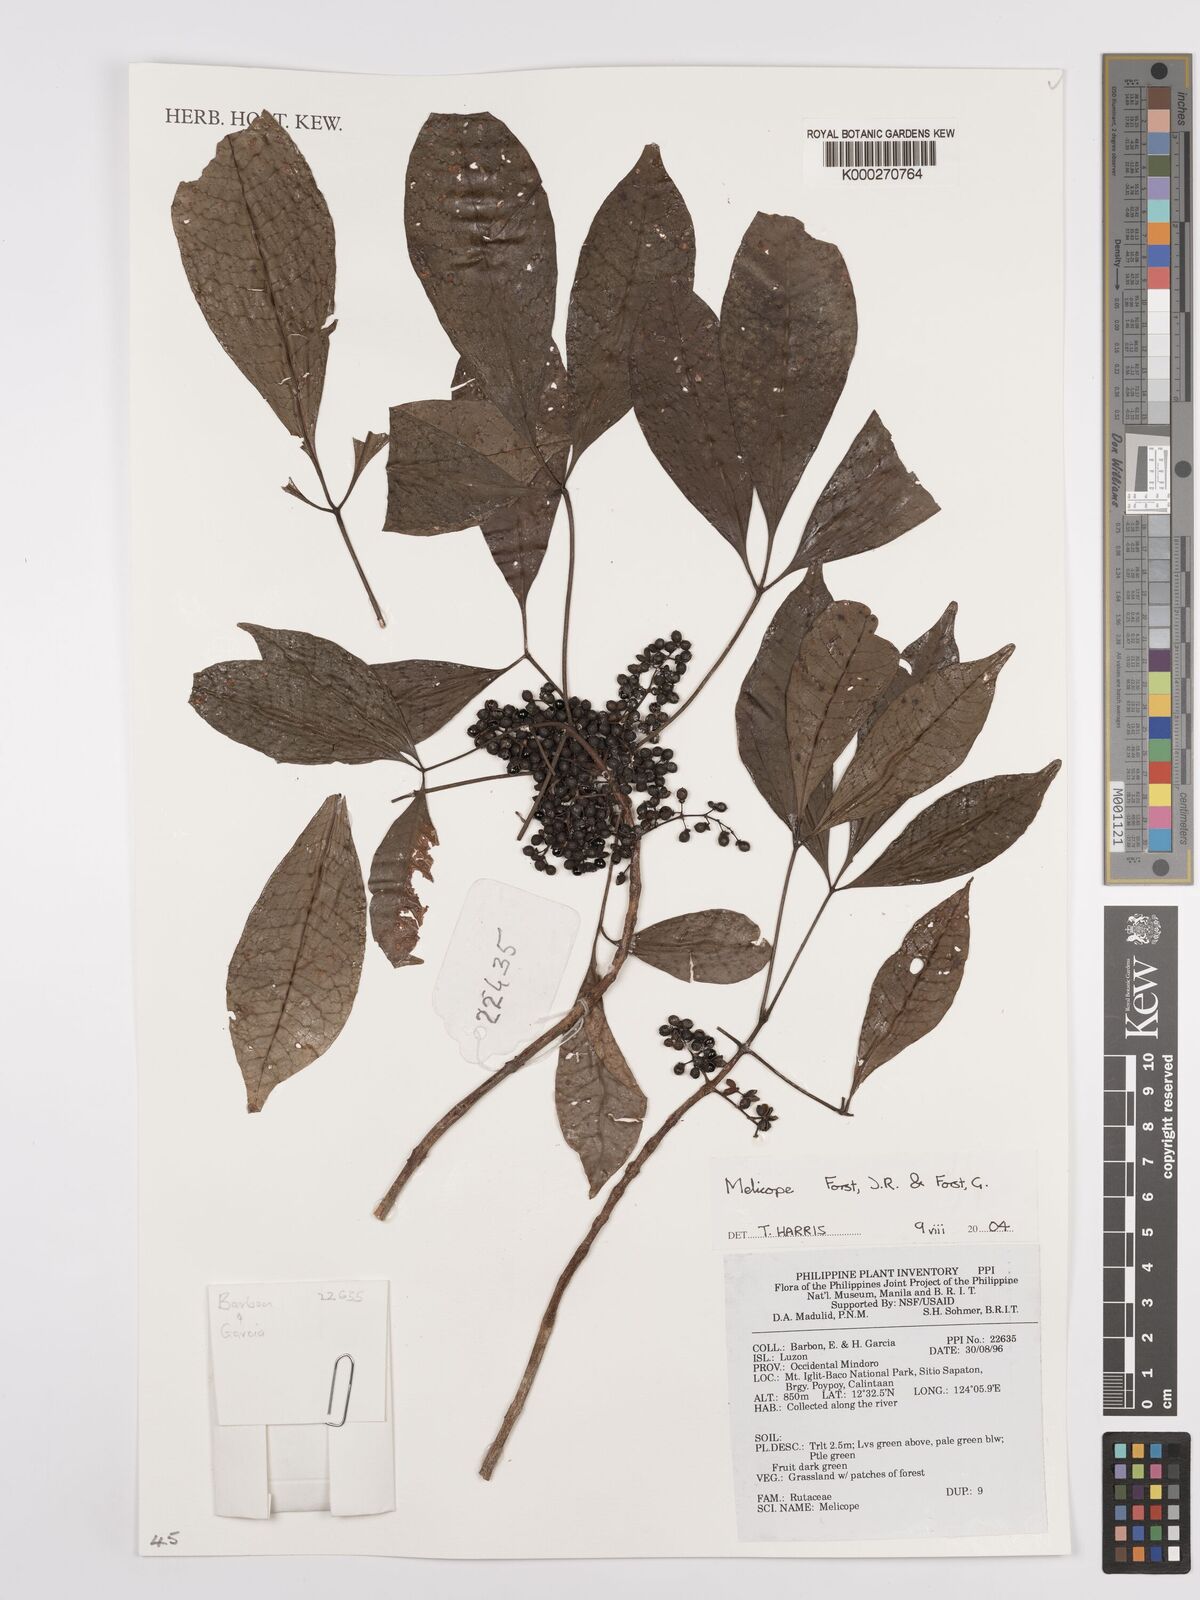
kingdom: Plantae
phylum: Tracheophyta
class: Magnoliopsida
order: Sapindales
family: Rutaceae
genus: Melicope
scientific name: Melicope
